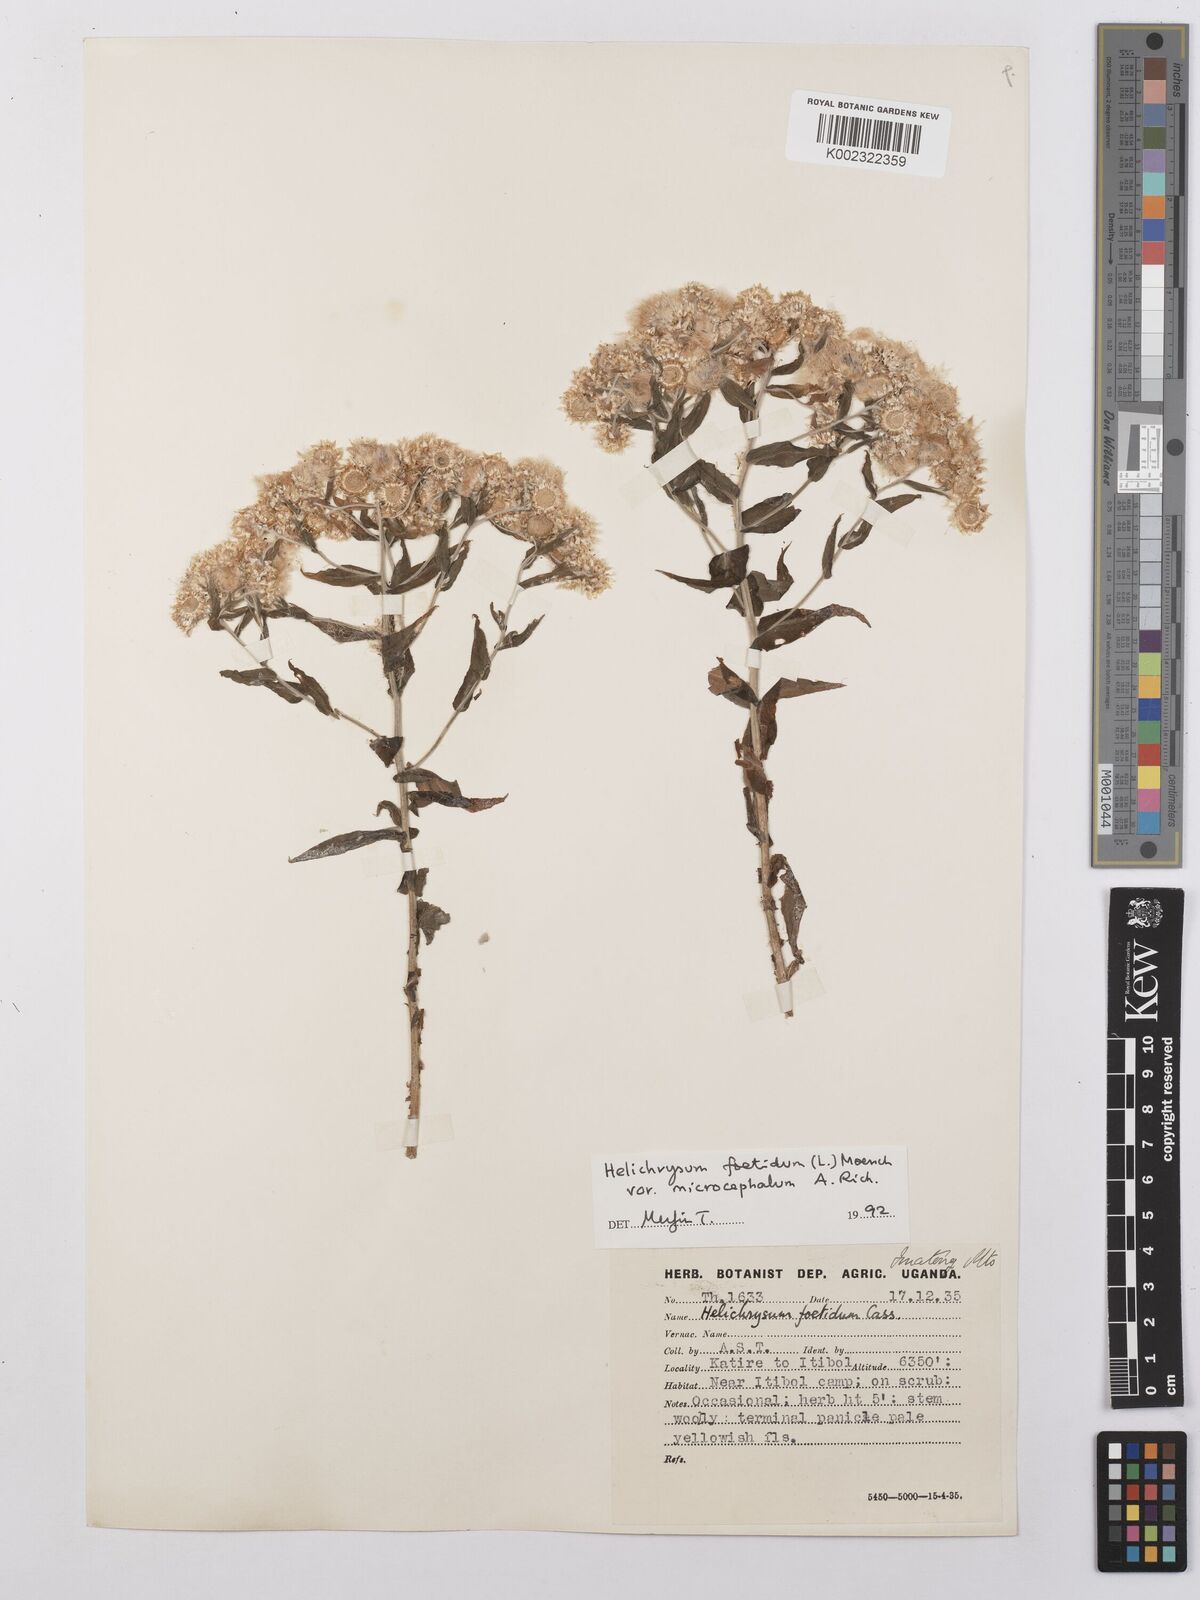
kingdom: Plantae
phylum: Tracheophyta
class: Magnoliopsida
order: Asterales
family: Asteraceae
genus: Helichrysum
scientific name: Helichrysum foetidum
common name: Stinking everlasting
